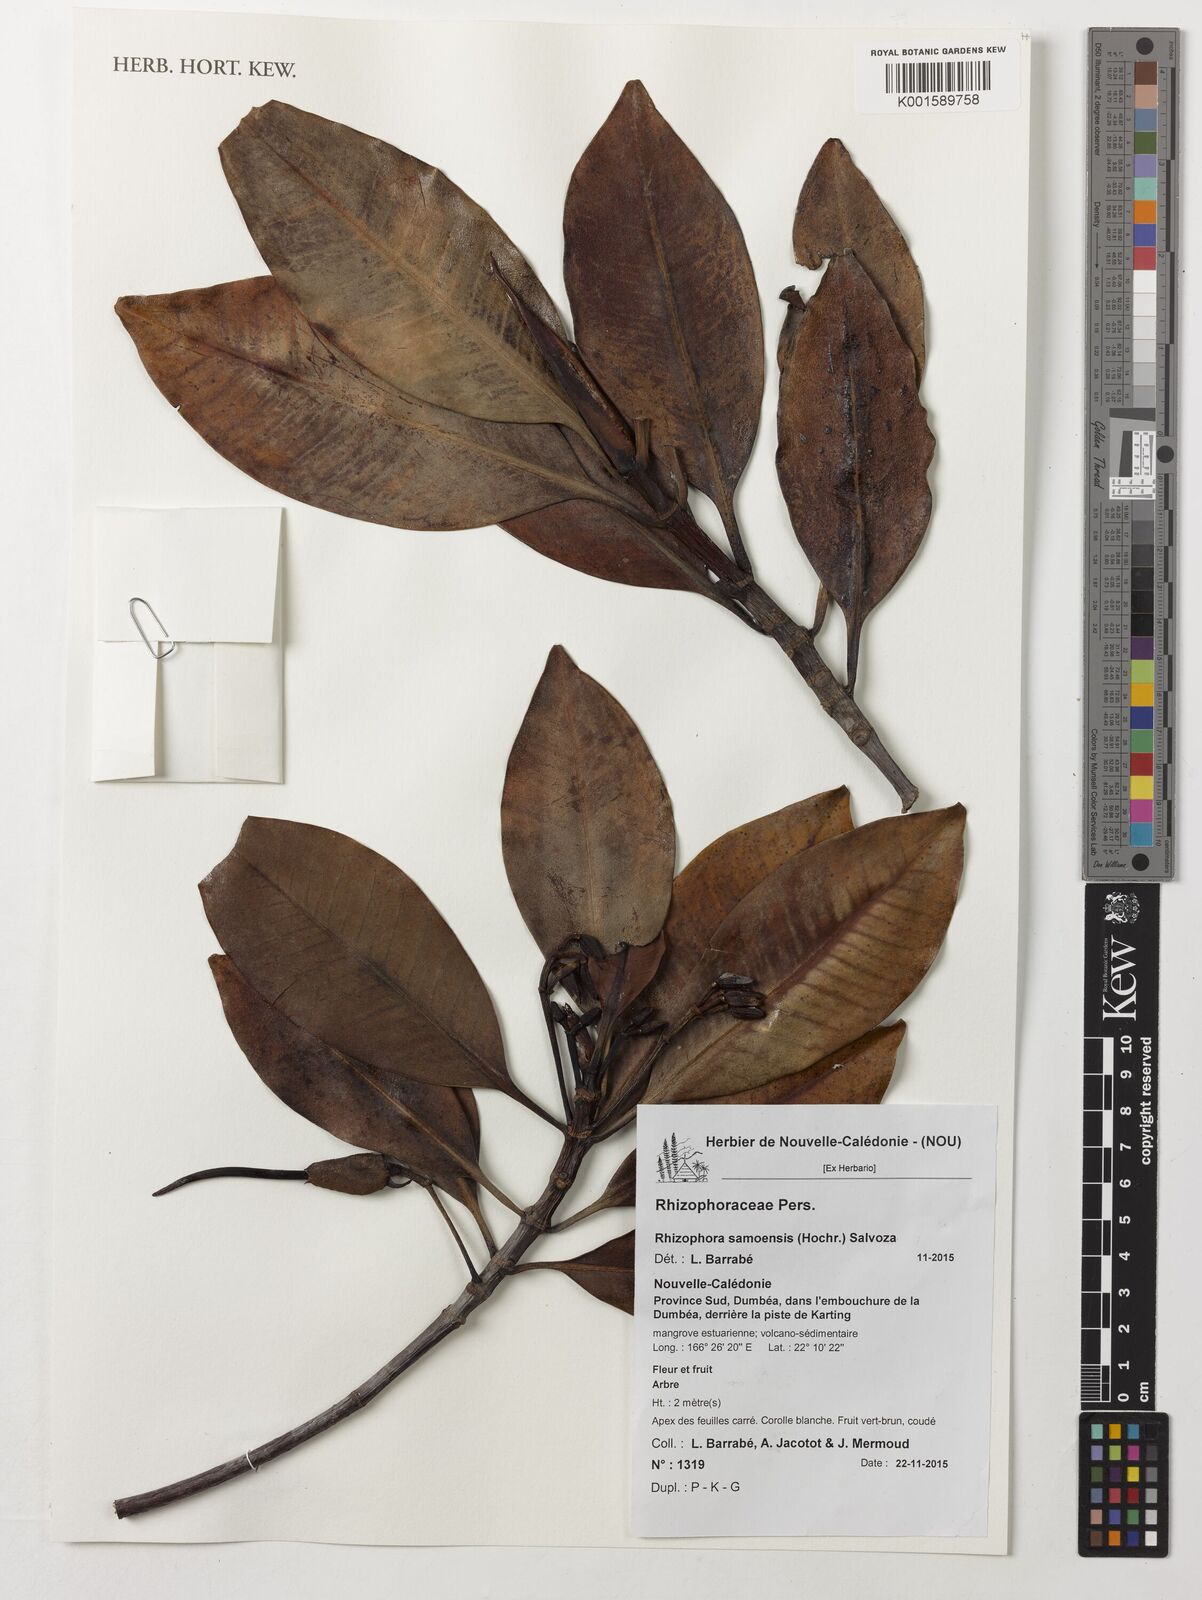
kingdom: Plantae
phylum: Tracheophyta
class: Magnoliopsida
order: Malpighiales
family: Rhizophoraceae
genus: Rhizophora
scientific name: Rhizophora samoensis
